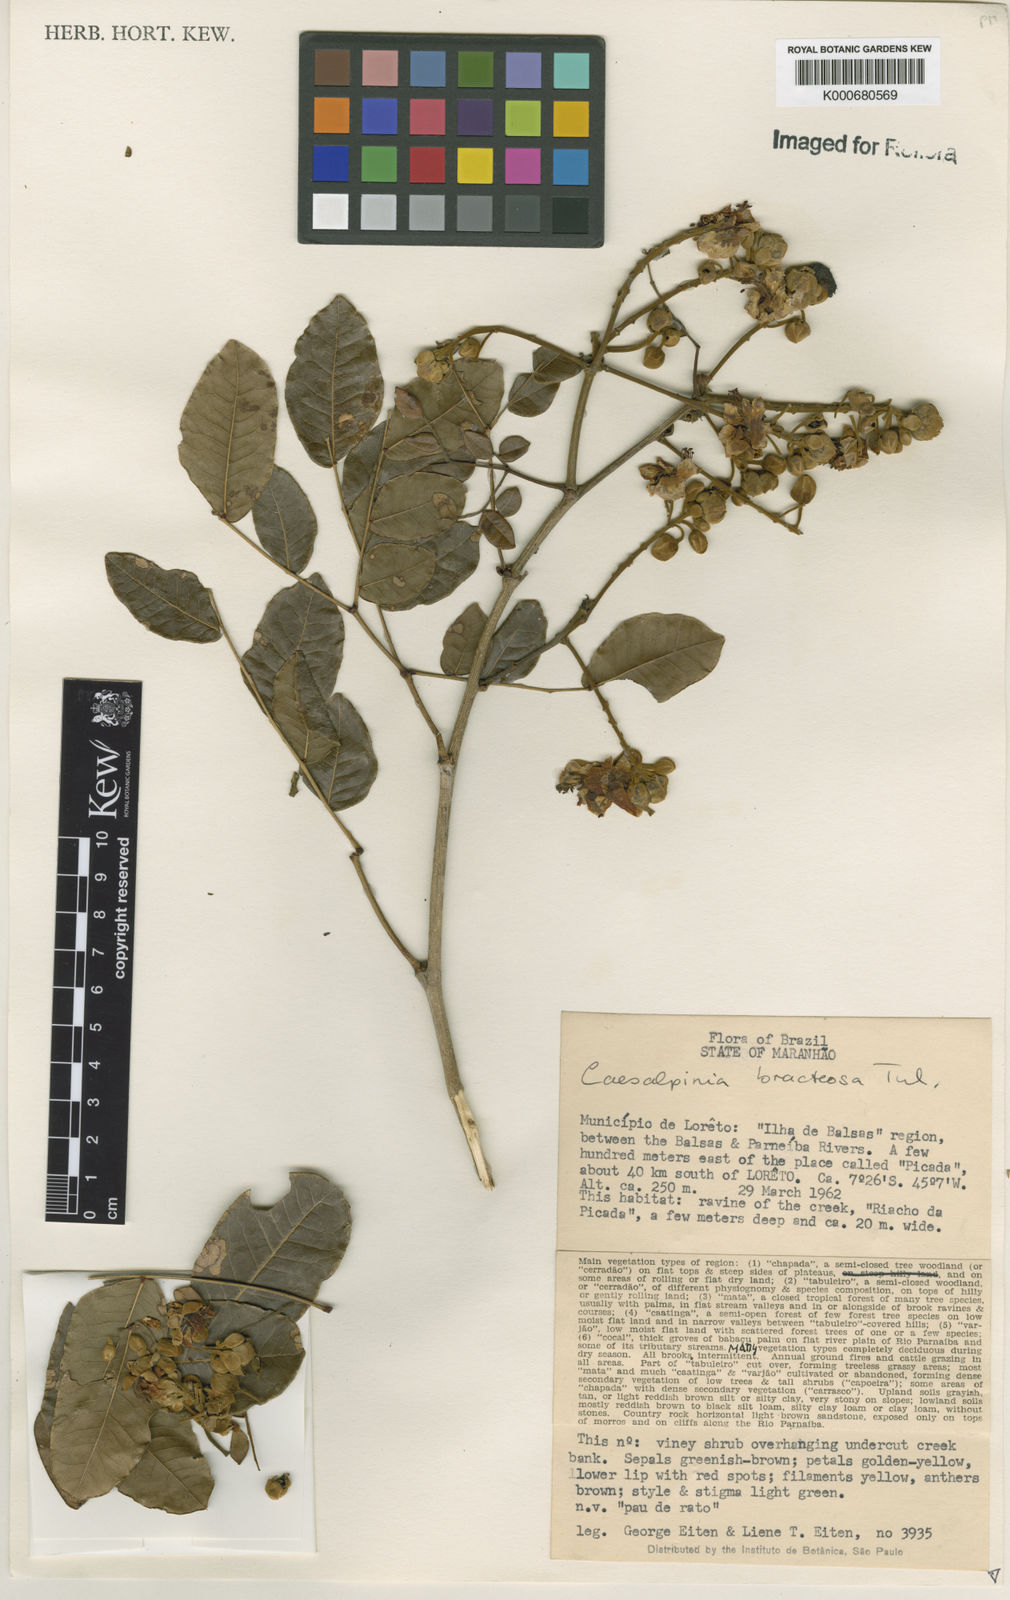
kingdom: Plantae
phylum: Tracheophyta
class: Magnoliopsida
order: Fabales
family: Fabaceae
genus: Cenostigma
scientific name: Cenostigma bracteosum
